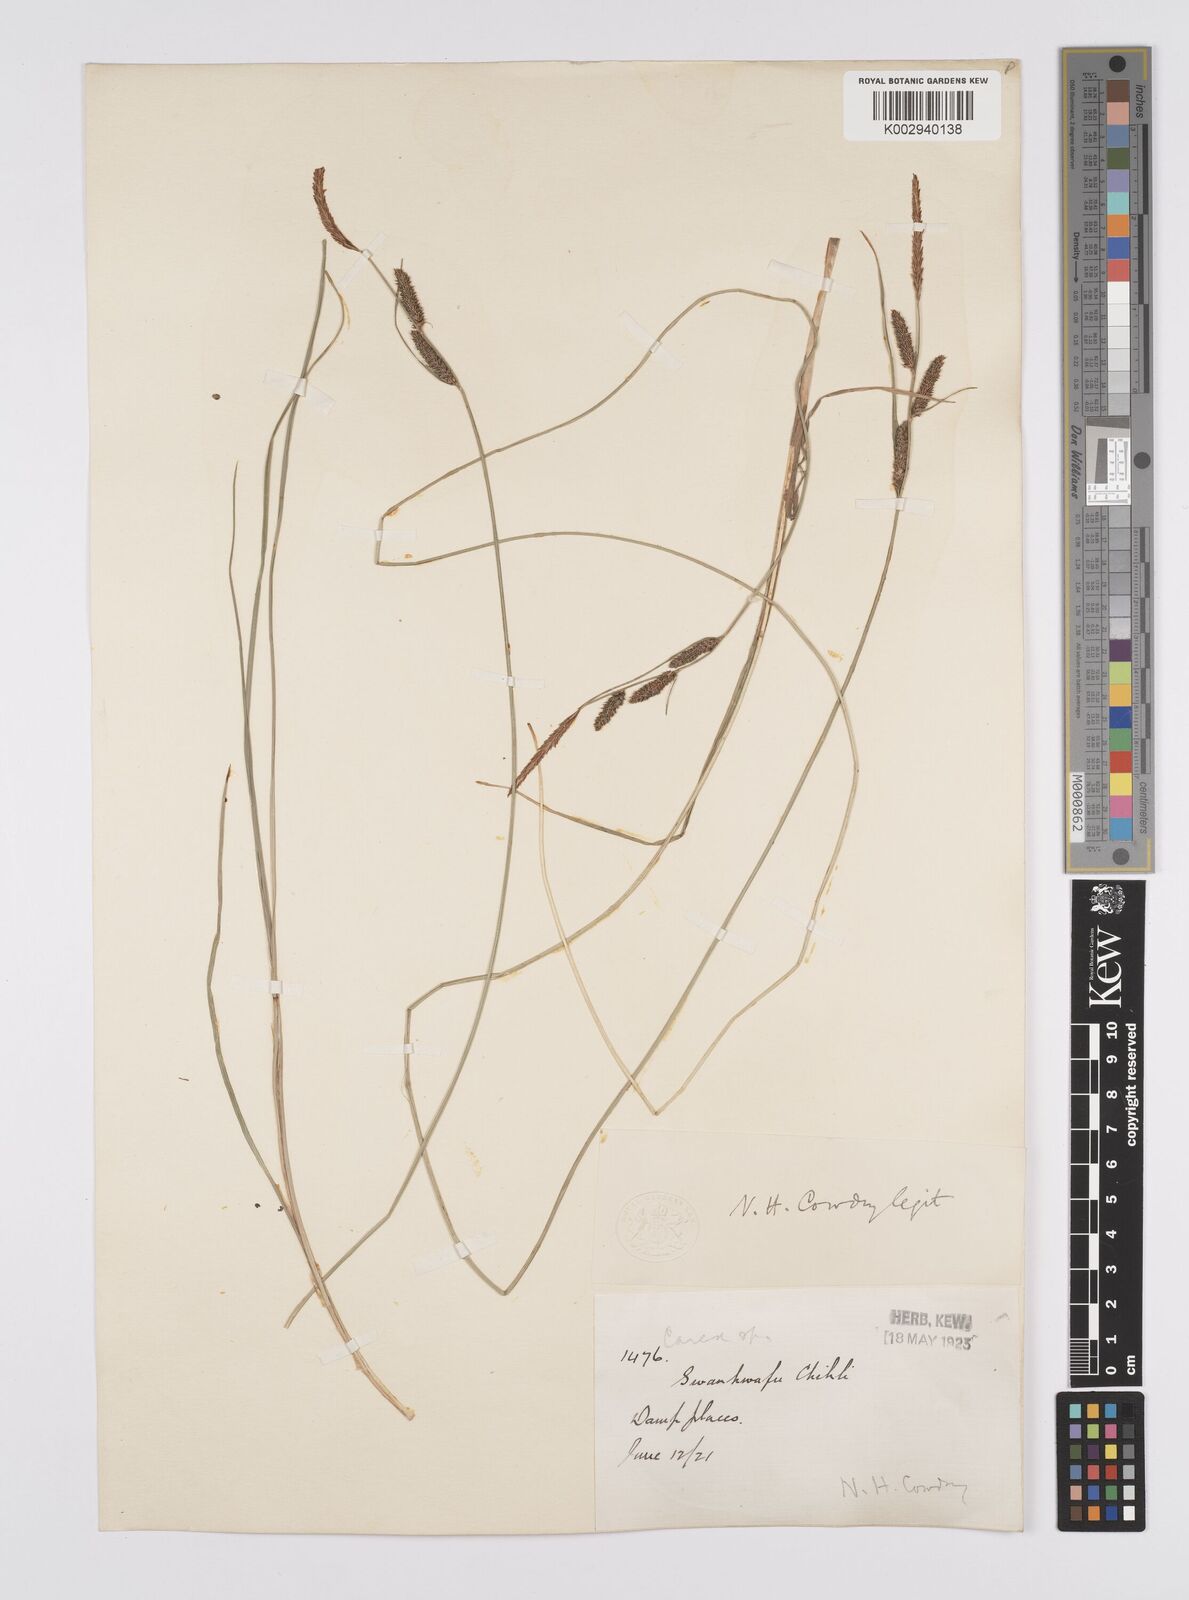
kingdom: Plantae
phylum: Tracheophyta
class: Liliopsida
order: Poales
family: Cyperaceae
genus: Carex
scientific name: Carex cruenta
